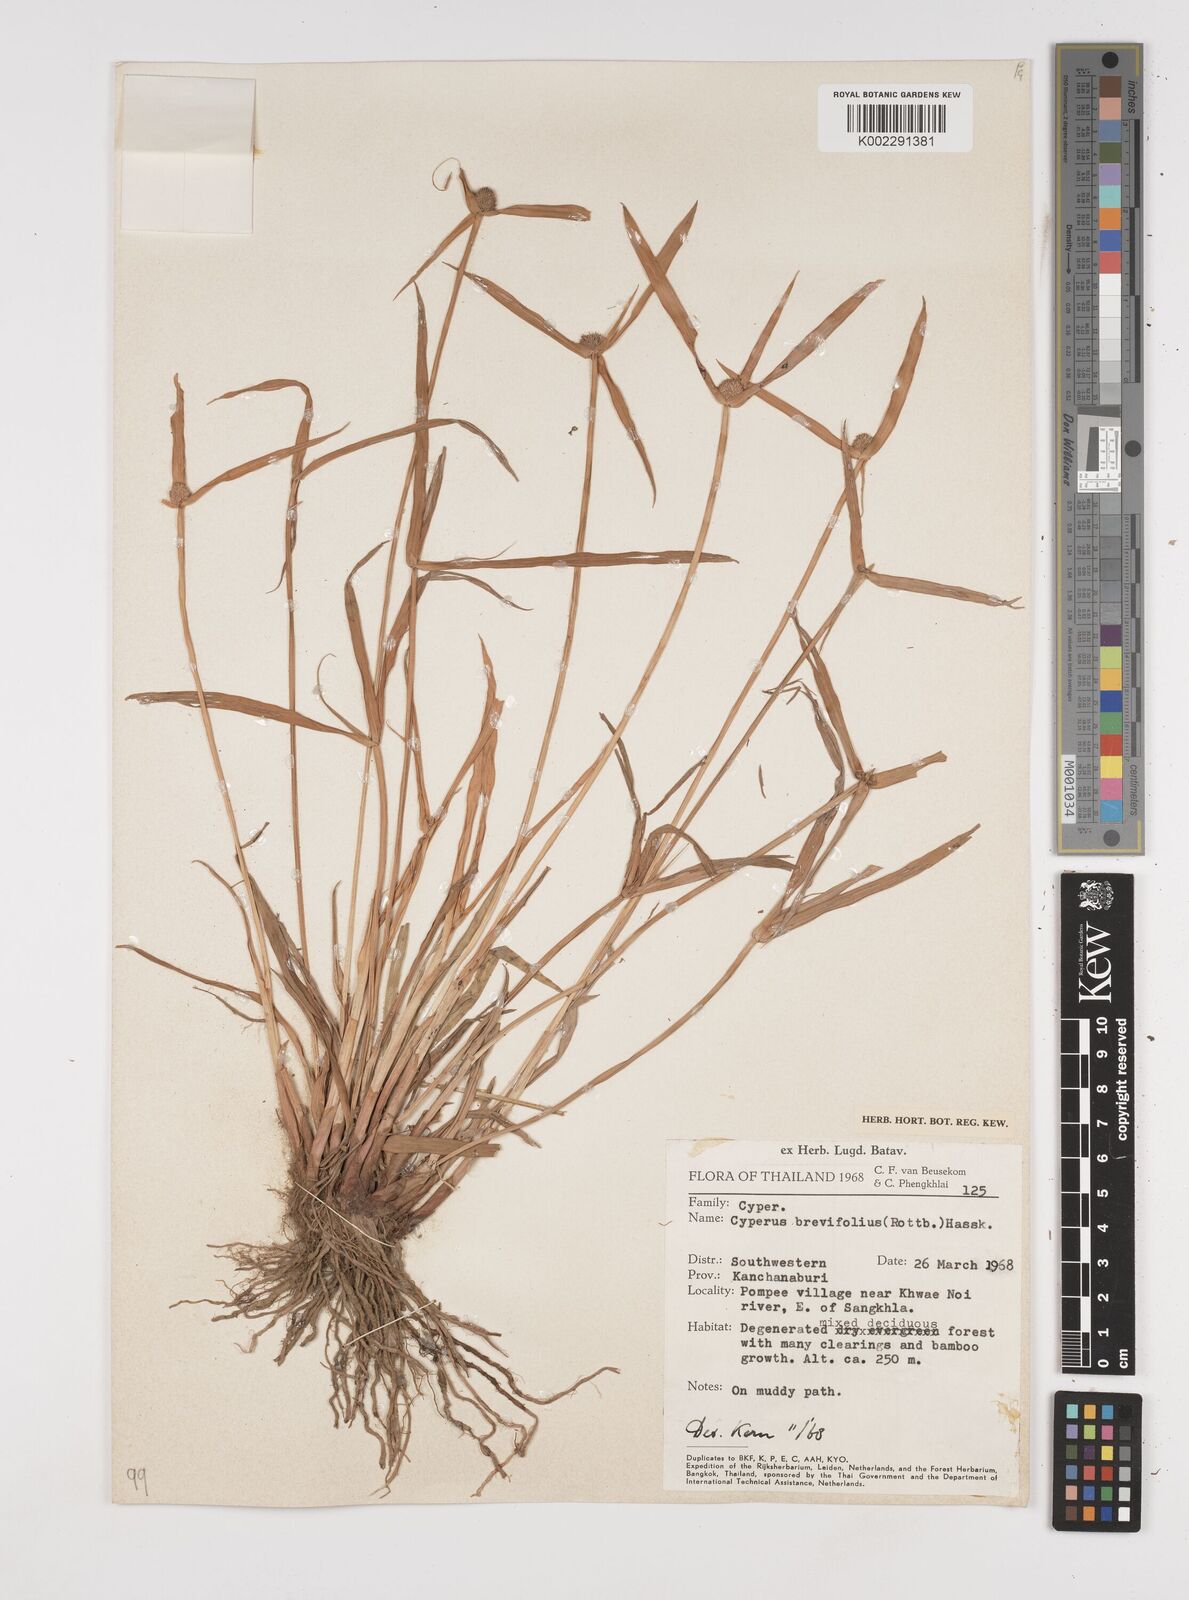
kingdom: Plantae
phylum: Tracheophyta
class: Liliopsida
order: Poales
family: Cyperaceae
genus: Cyperus
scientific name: Cyperus brevifolius
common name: Globe kyllinga
